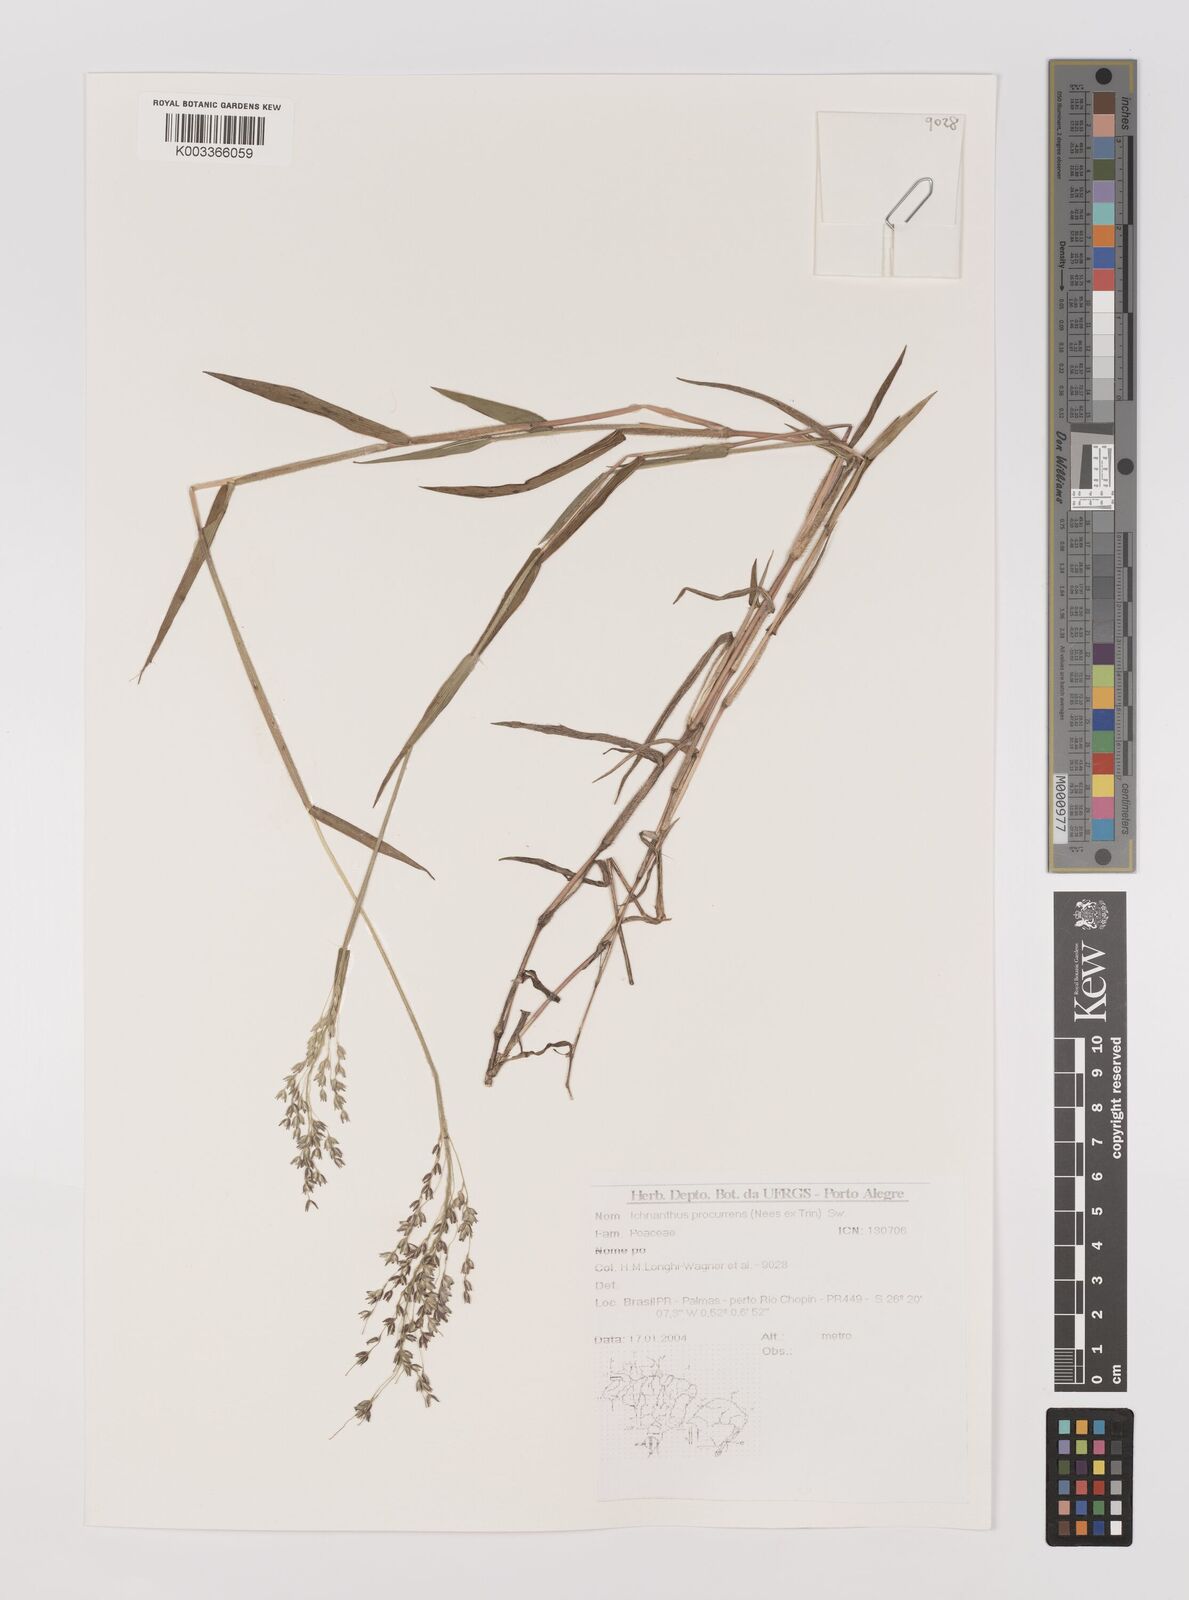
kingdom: Plantae
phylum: Tracheophyta
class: Liliopsida
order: Poales
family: Poaceae
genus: Oedochloa
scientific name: Oedochloa procurrens
